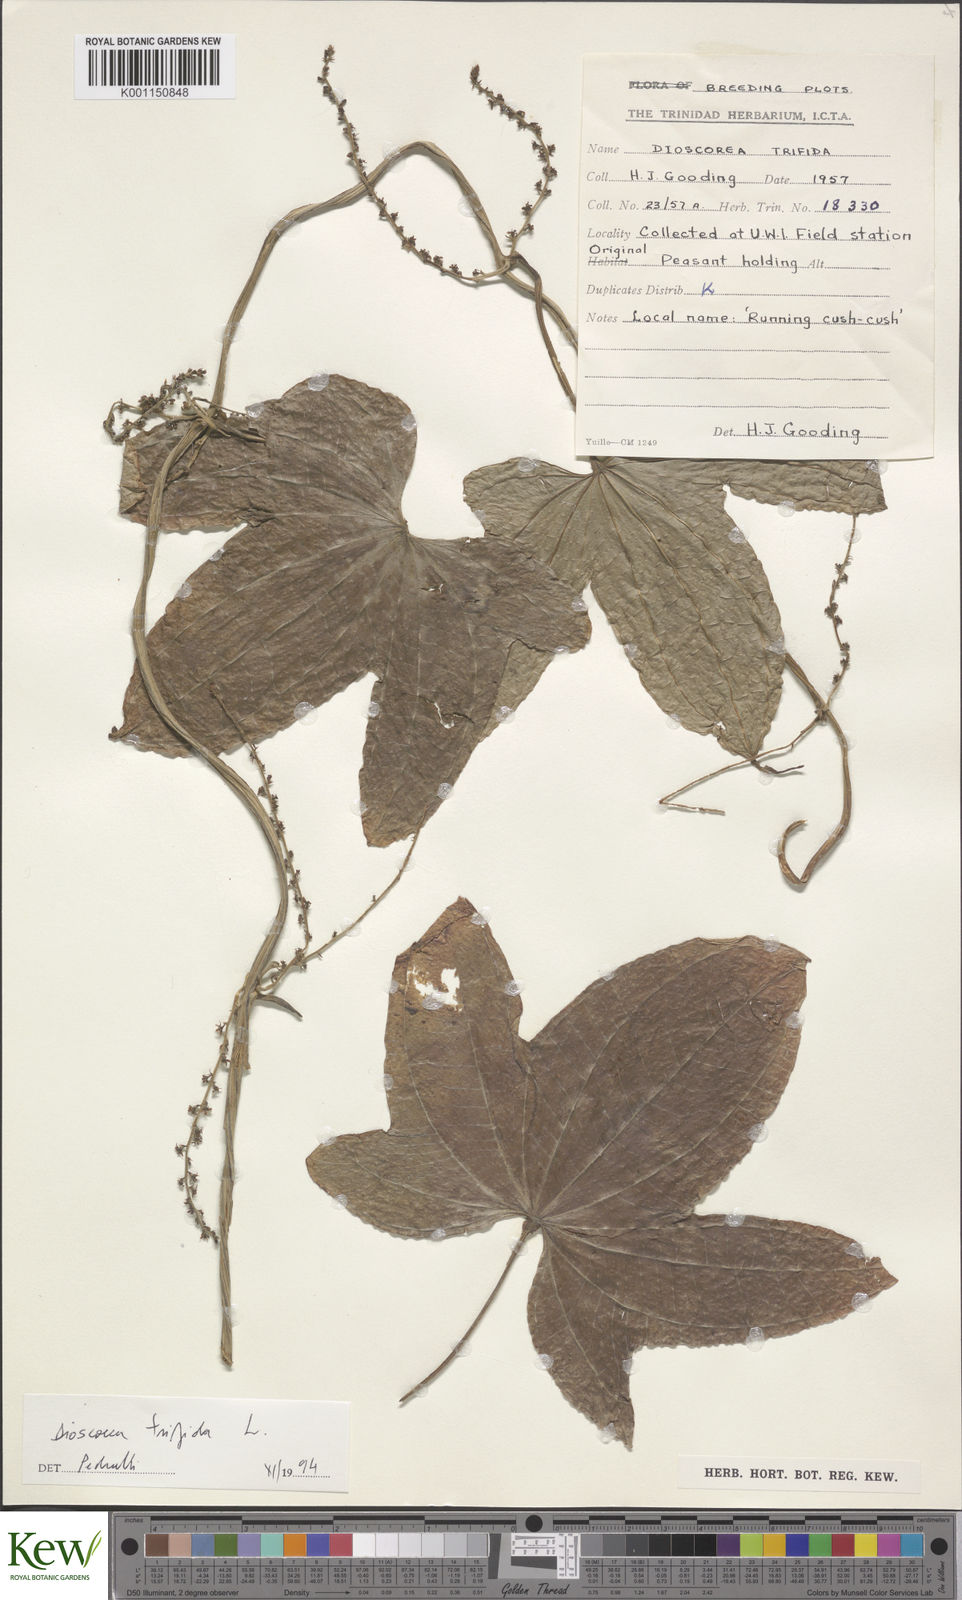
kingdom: Plantae
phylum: Tracheophyta
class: Liliopsida
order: Dioscoreales
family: Dioscoreaceae
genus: Dioscorea
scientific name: Dioscorea trifida
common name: Cush-cush
